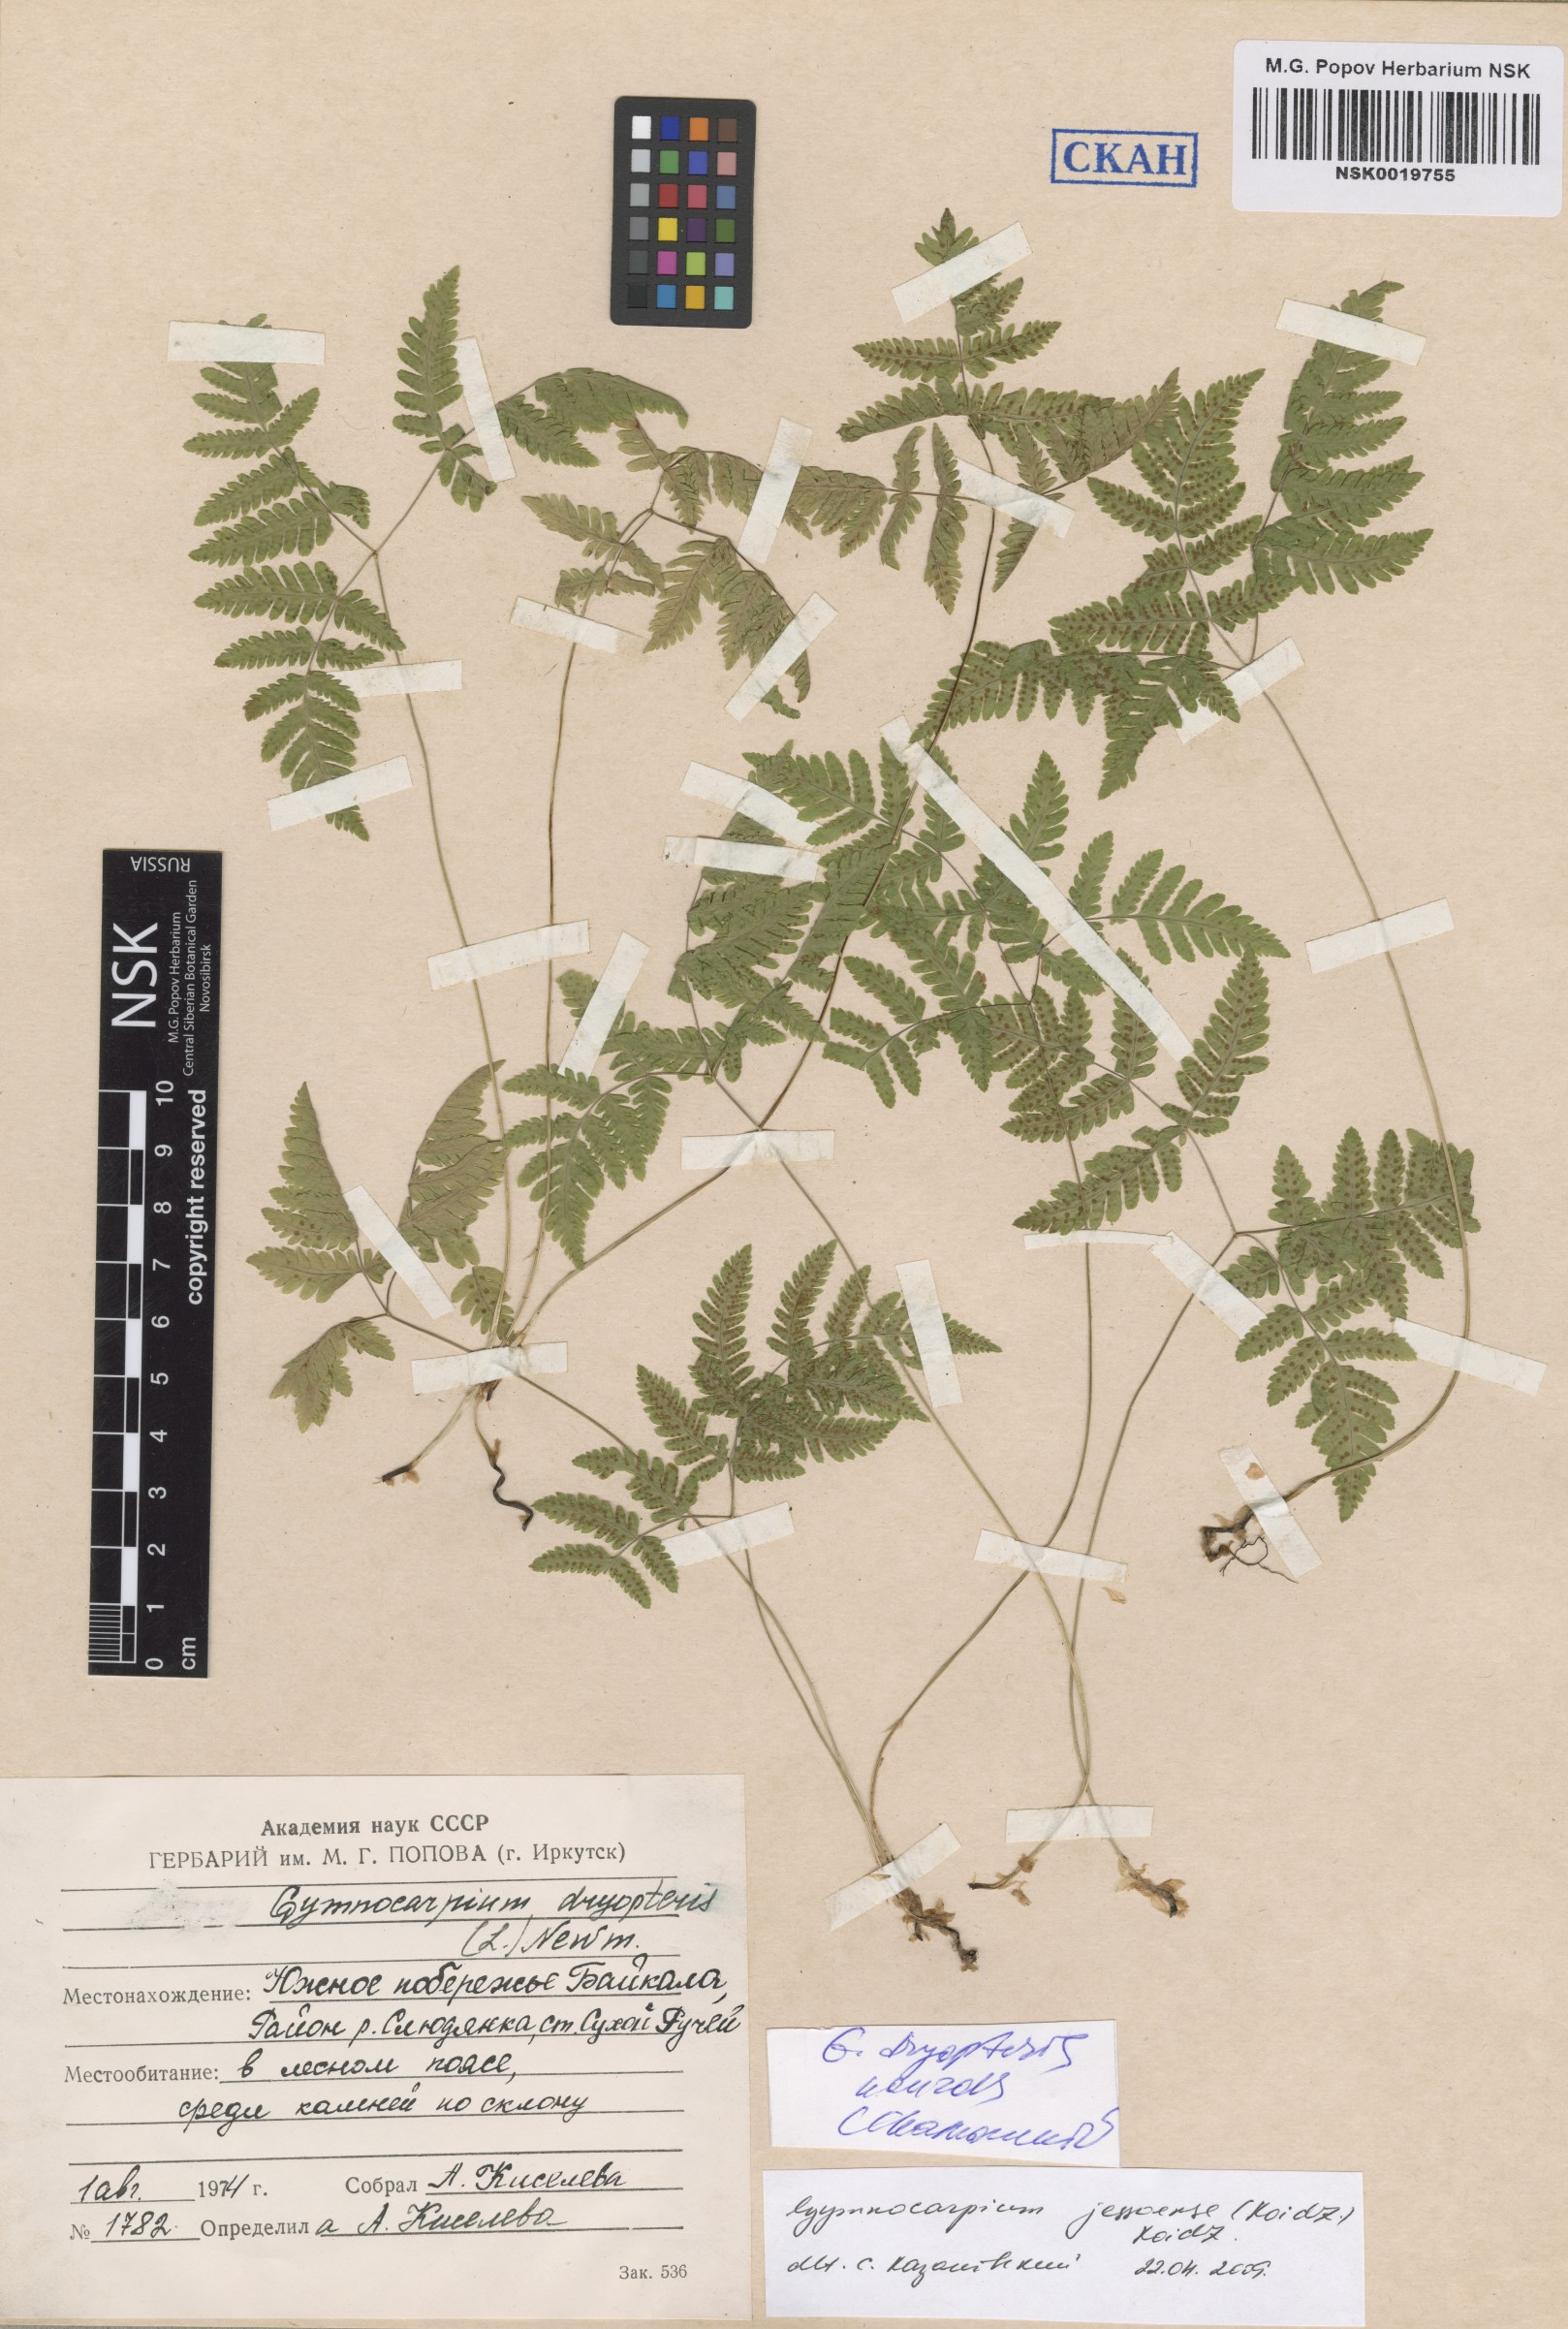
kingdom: Plantae
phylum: Tracheophyta
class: Polypodiopsida
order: Polypodiales
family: Cystopteridaceae
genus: Gymnocarpium
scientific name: Gymnocarpium dryopteris
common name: Oak fern
